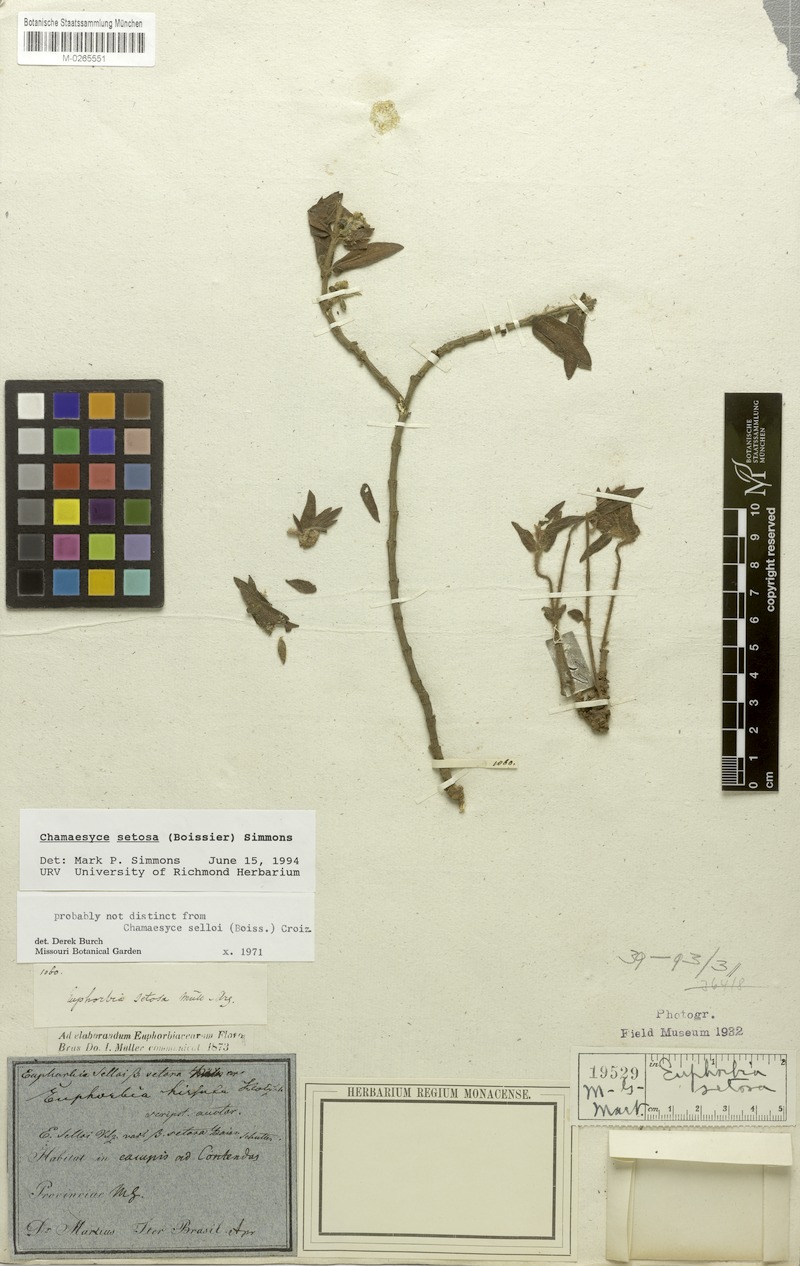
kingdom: Plantae
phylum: Tracheophyta
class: Magnoliopsida
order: Malpighiales
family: Euphorbiaceae
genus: Euphorbia
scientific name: Euphorbia setosa
